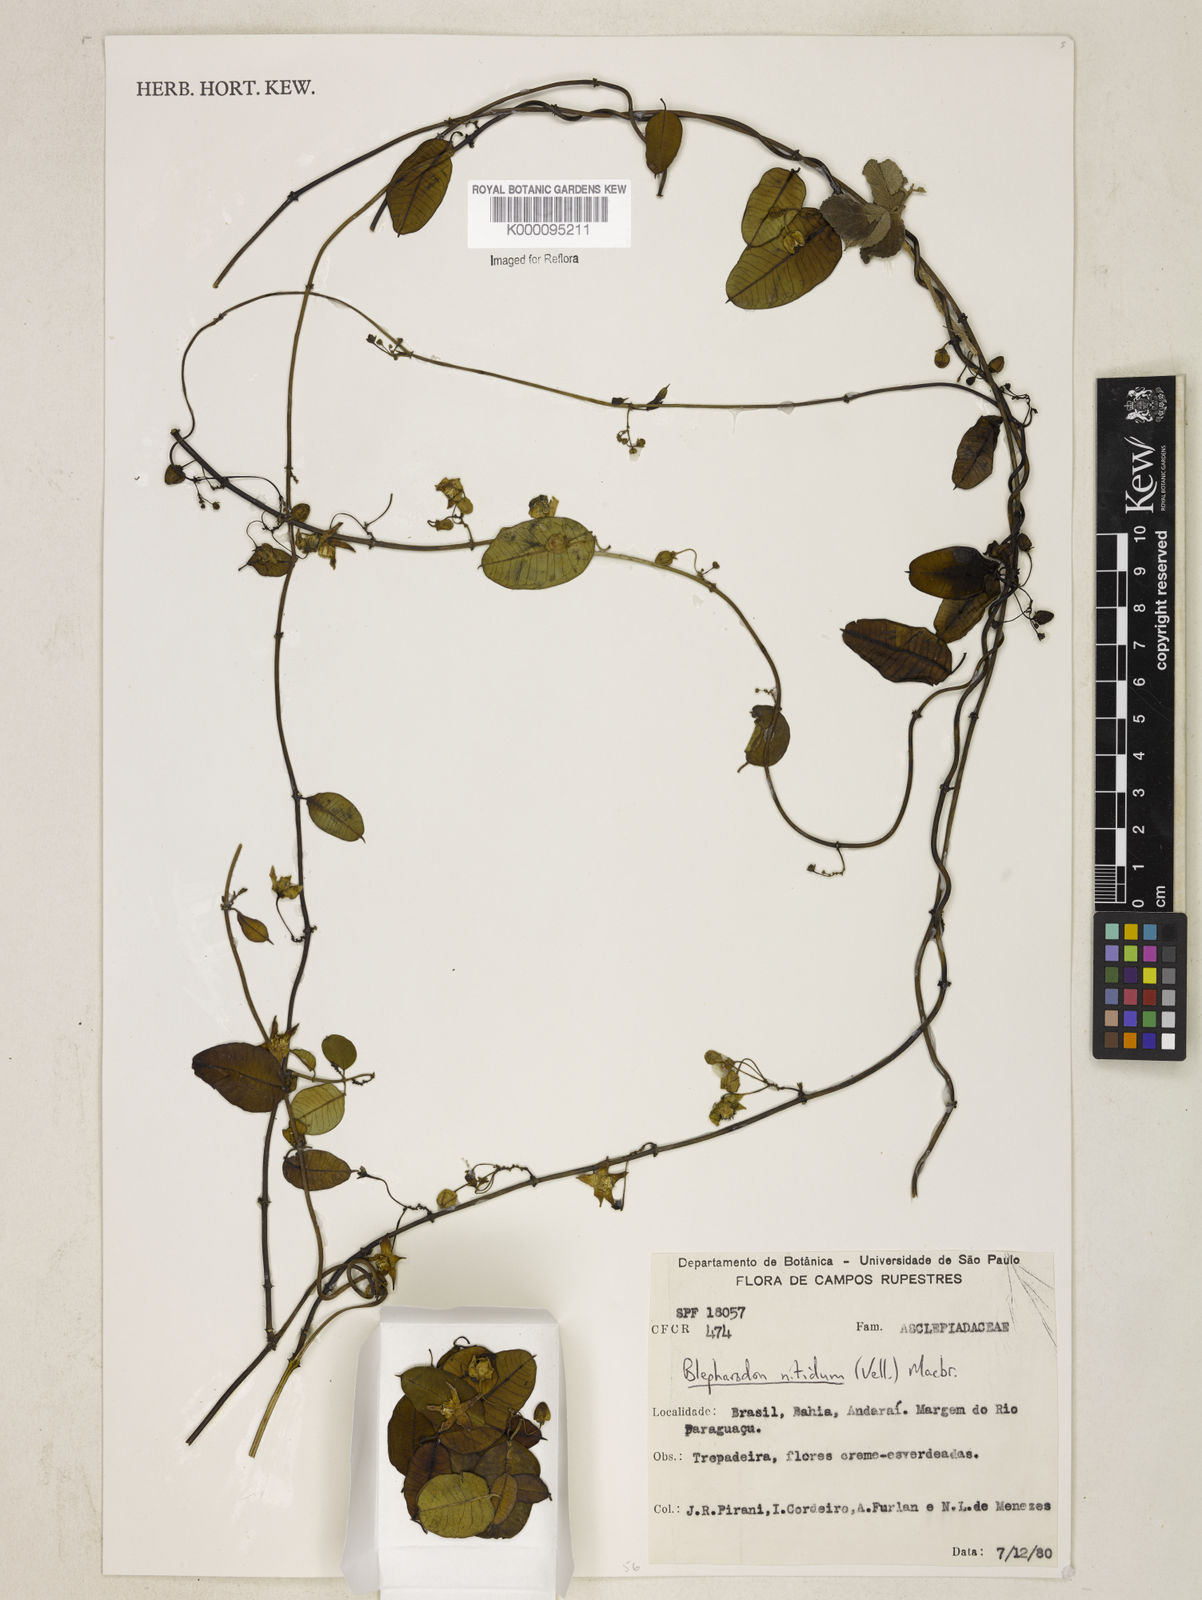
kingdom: Plantae
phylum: Tracheophyta
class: Magnoliopsida
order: Gentianales
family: Apocynaceae
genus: Blepharodon
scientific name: Blepharodon pictum
